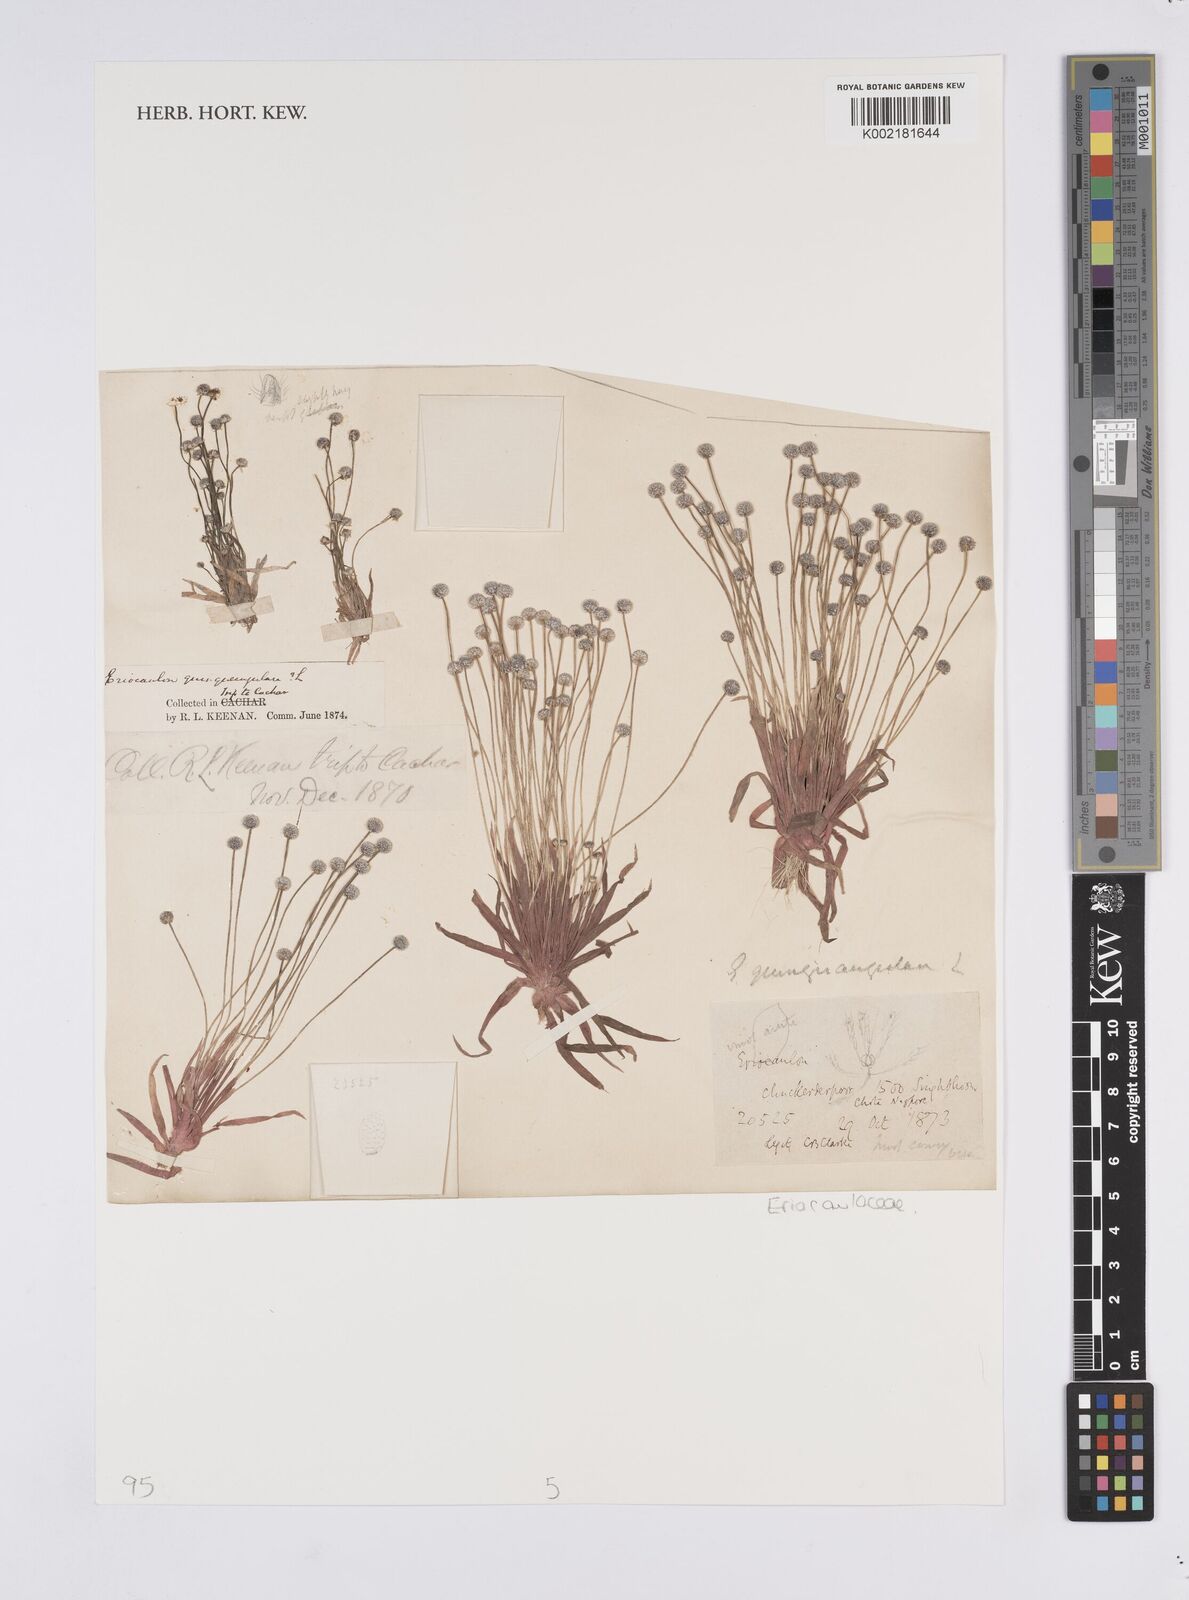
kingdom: Plantae
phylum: Tracheophyta
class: Liliopsida
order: Poales
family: Eriocaulaceae
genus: Eriocaulon
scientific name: Eriocaulon quinquangulare
